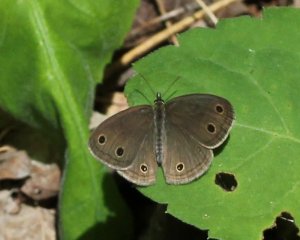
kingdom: Animalia
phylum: Arthropoda
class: Insecta
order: Lepidoptera
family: Nymphalidae
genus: Euptychia
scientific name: Euptychia cymela
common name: Little Wood Satyr
